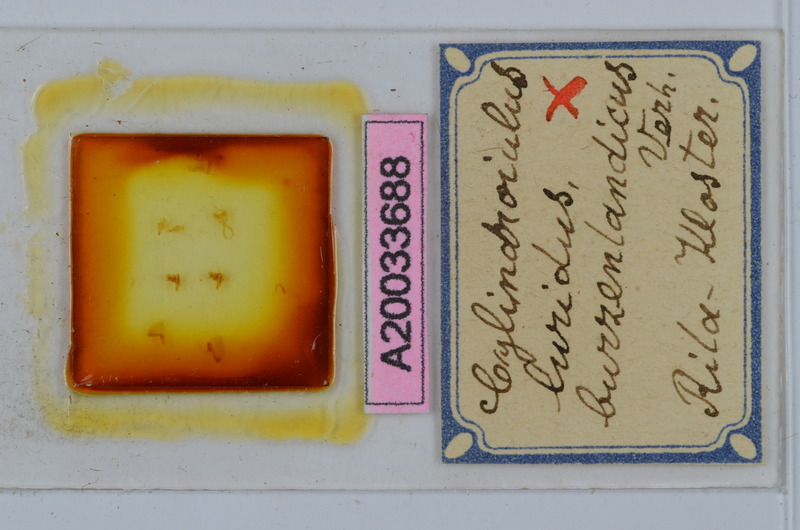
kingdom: Animalia
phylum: Arthropoda
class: Diplopoda
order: Julida
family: Julidae
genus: Cylindroiulus
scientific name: Cylindroiulus burzenlandicus
